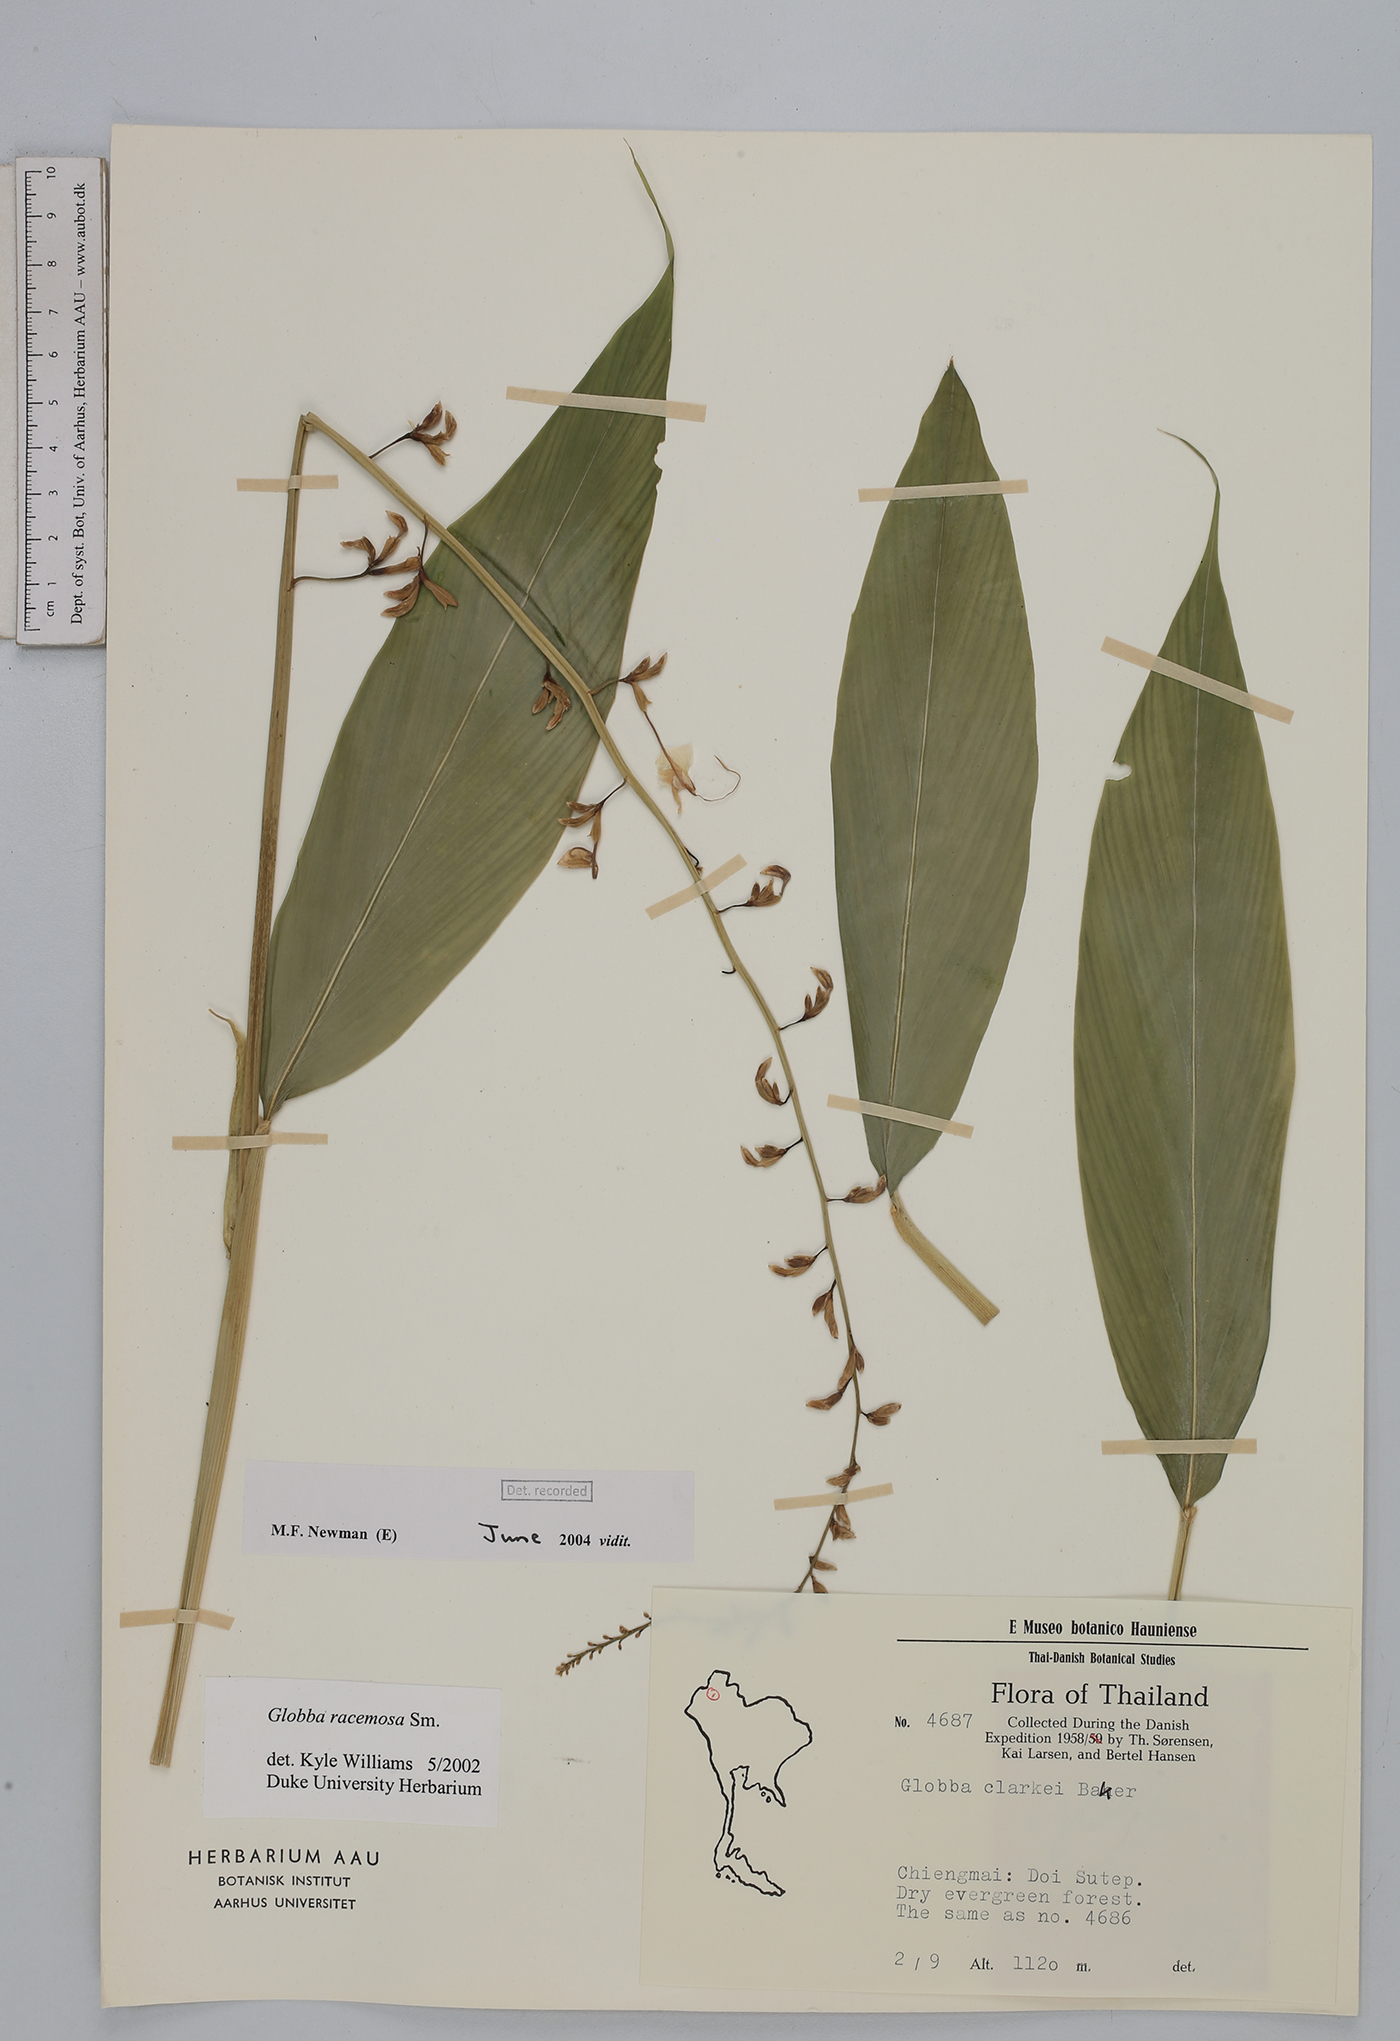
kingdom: Plantae
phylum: Tracheophyta
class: Liliopsida
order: Zingiberales
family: Zingiberaceae
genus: Globba
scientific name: Globba racemosa
